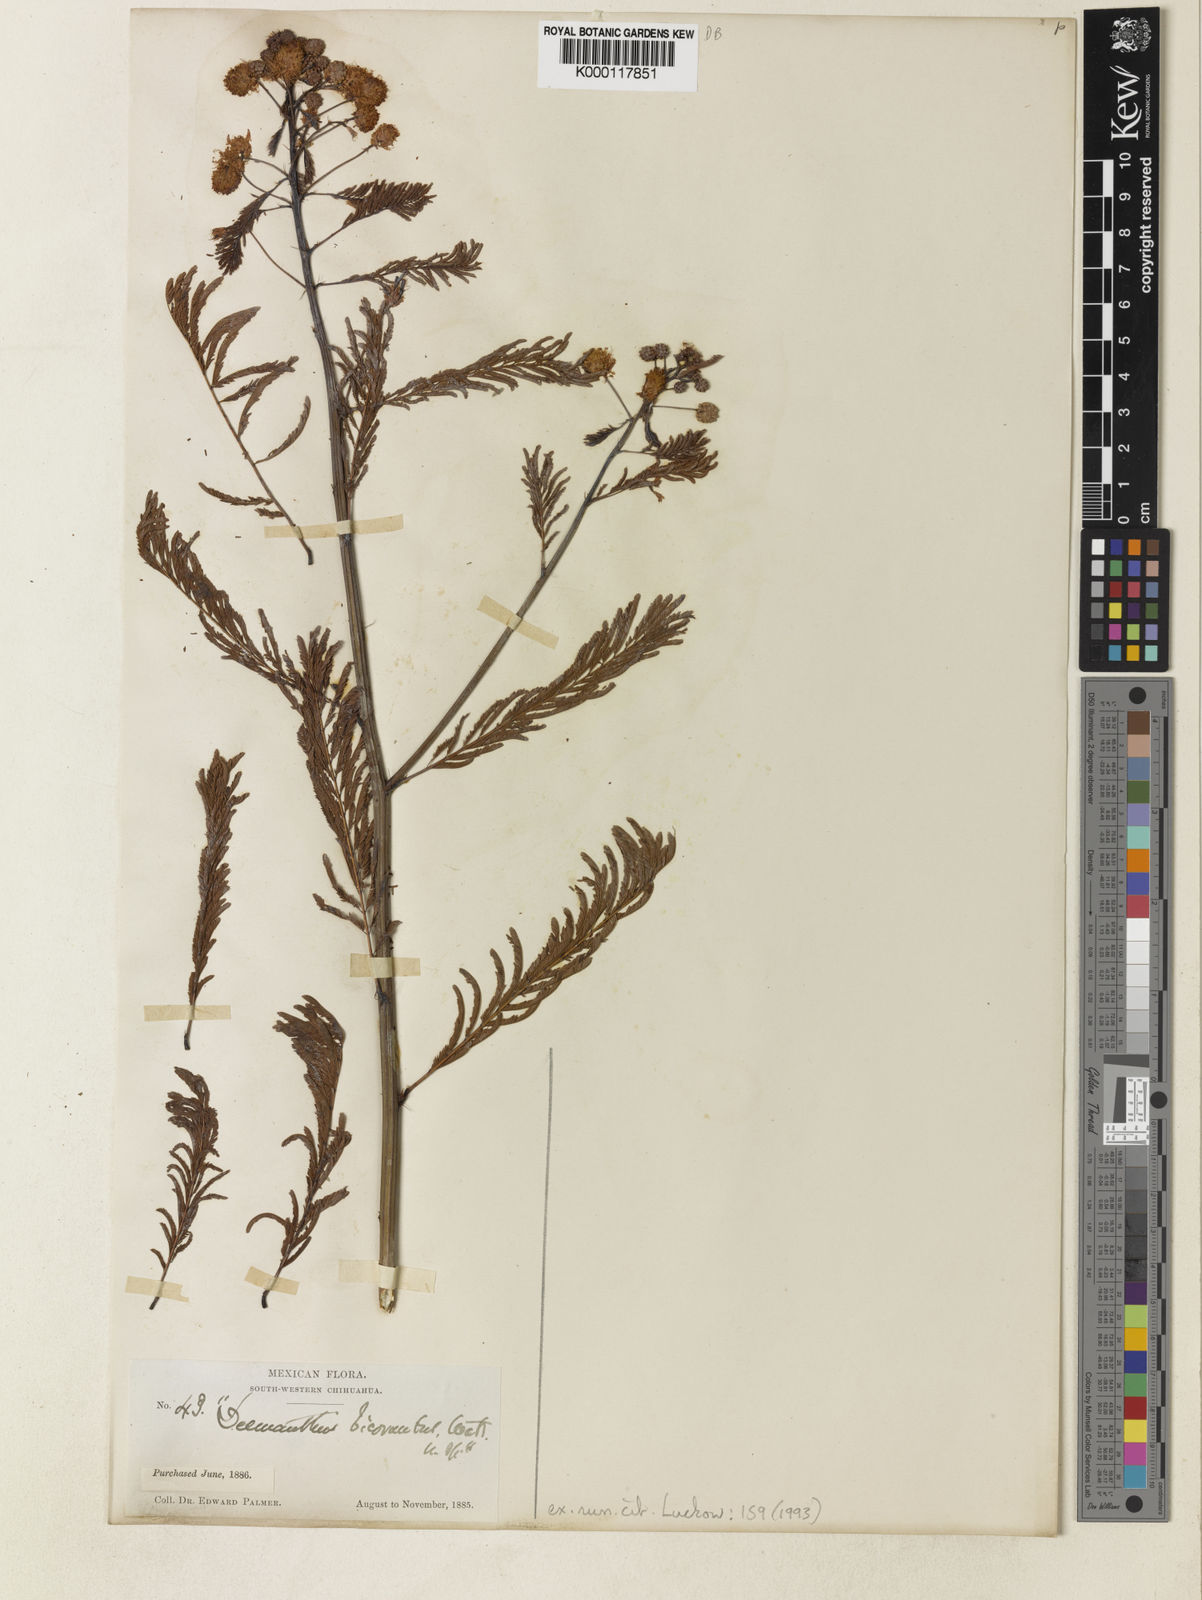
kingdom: Plantae
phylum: Tracheophyta
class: Magnoliopsida
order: Fabales
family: Fabaceae
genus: Desmanthus
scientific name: Desmanthus bicornutus
